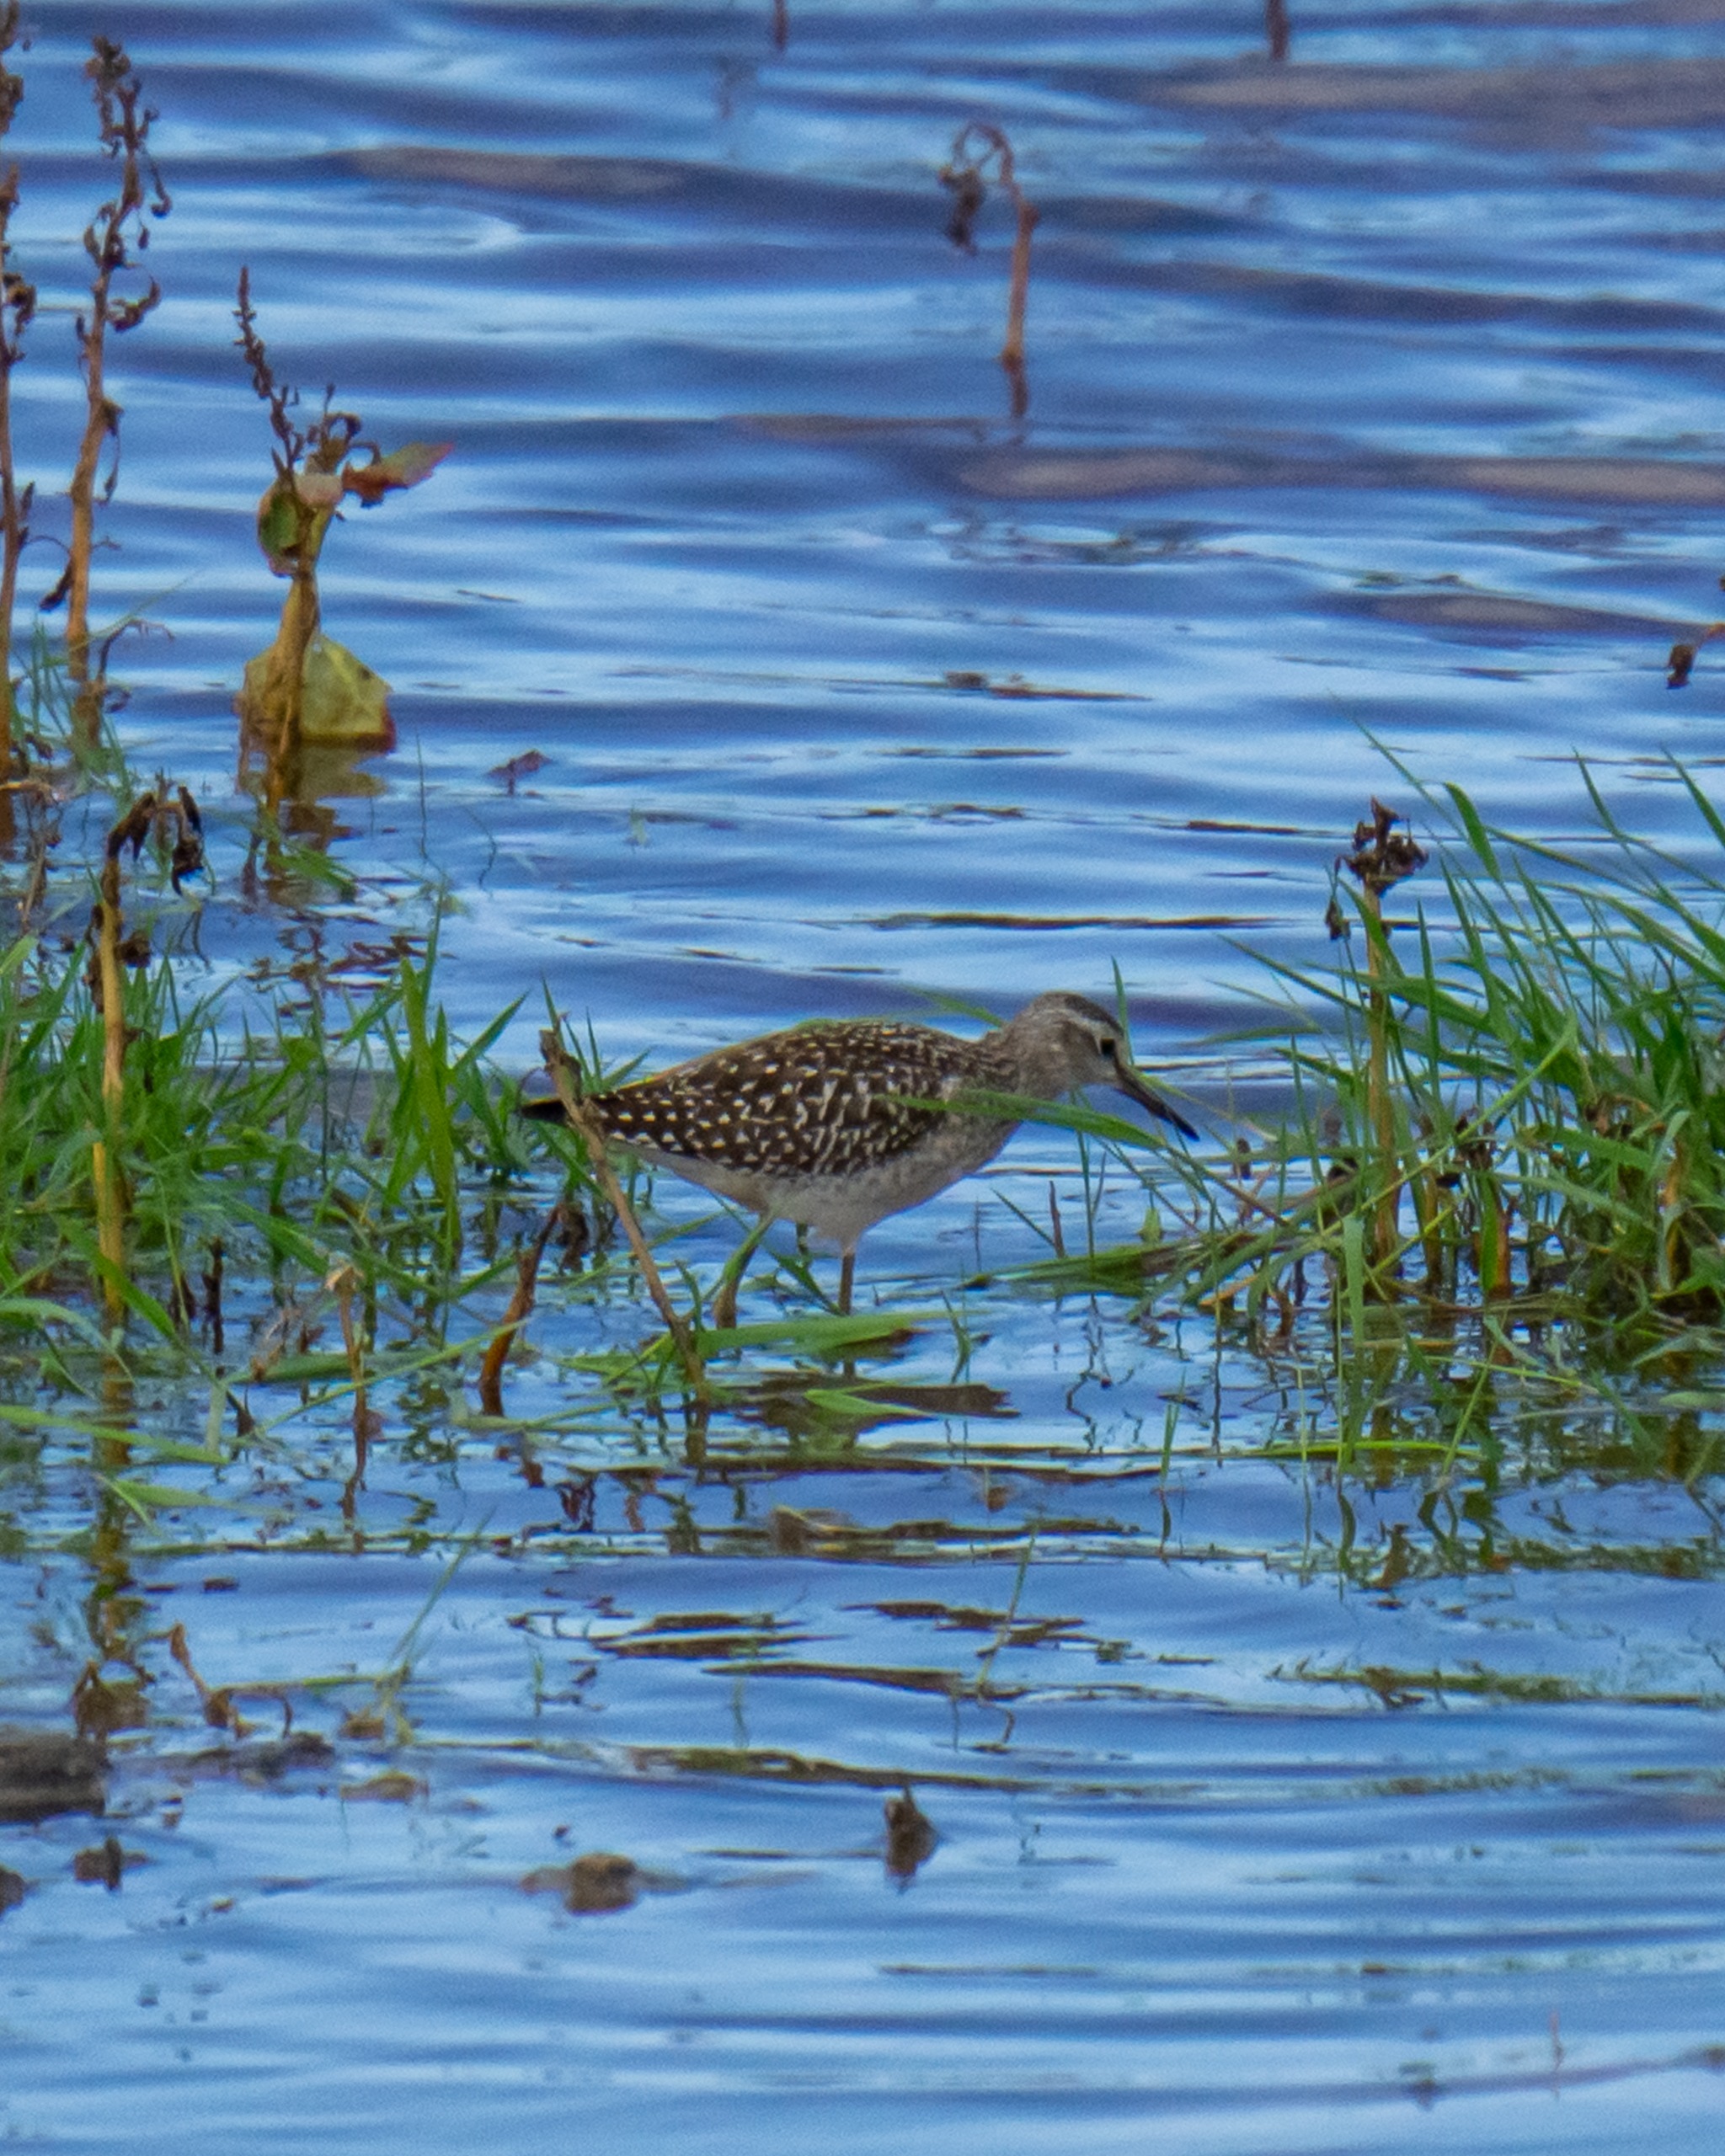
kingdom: Animalia
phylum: Chordata
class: Aves
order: Charadriiformes
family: Scolopacidae
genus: Tringa
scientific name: Tringa glareola
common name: Tinksmed
